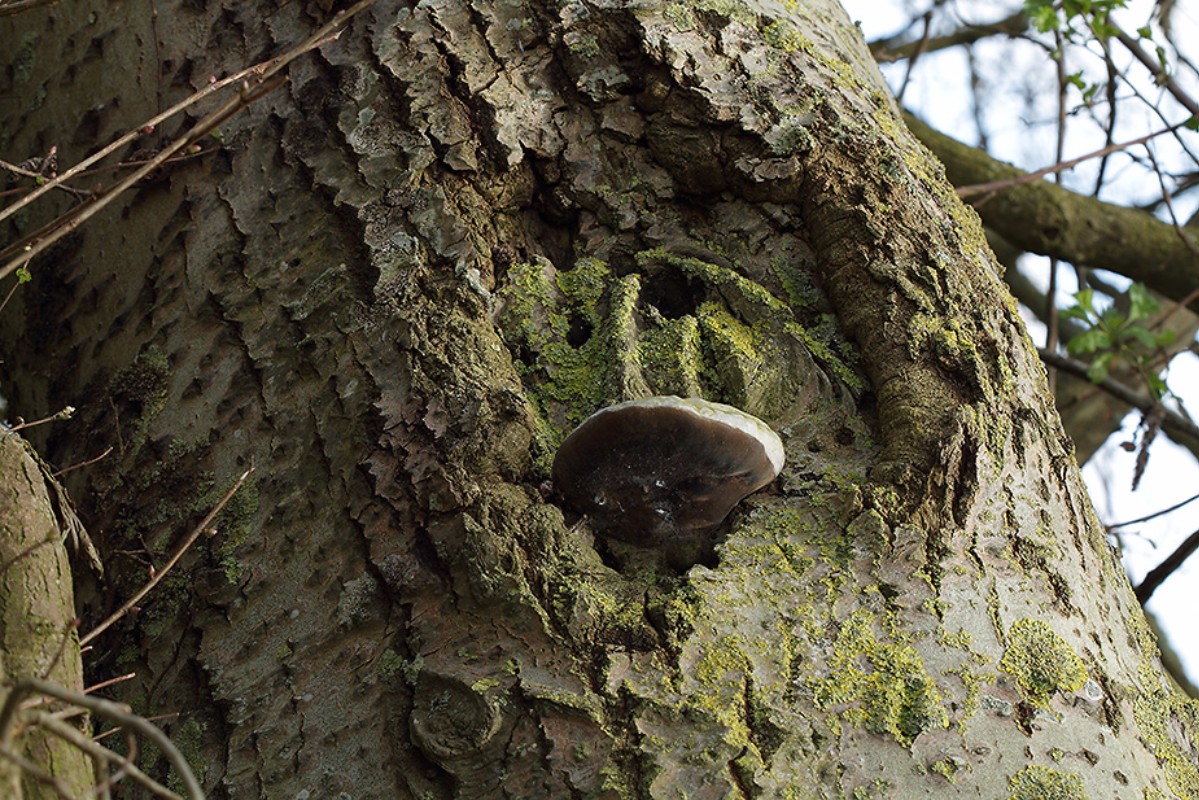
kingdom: Fungi
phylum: Basidiomycota
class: Agaricomycetes
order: Hymenochaetales
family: Hymenochaetaceae
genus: Phellinus
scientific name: Phellinus populicola
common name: poppel-ildporesvamp
